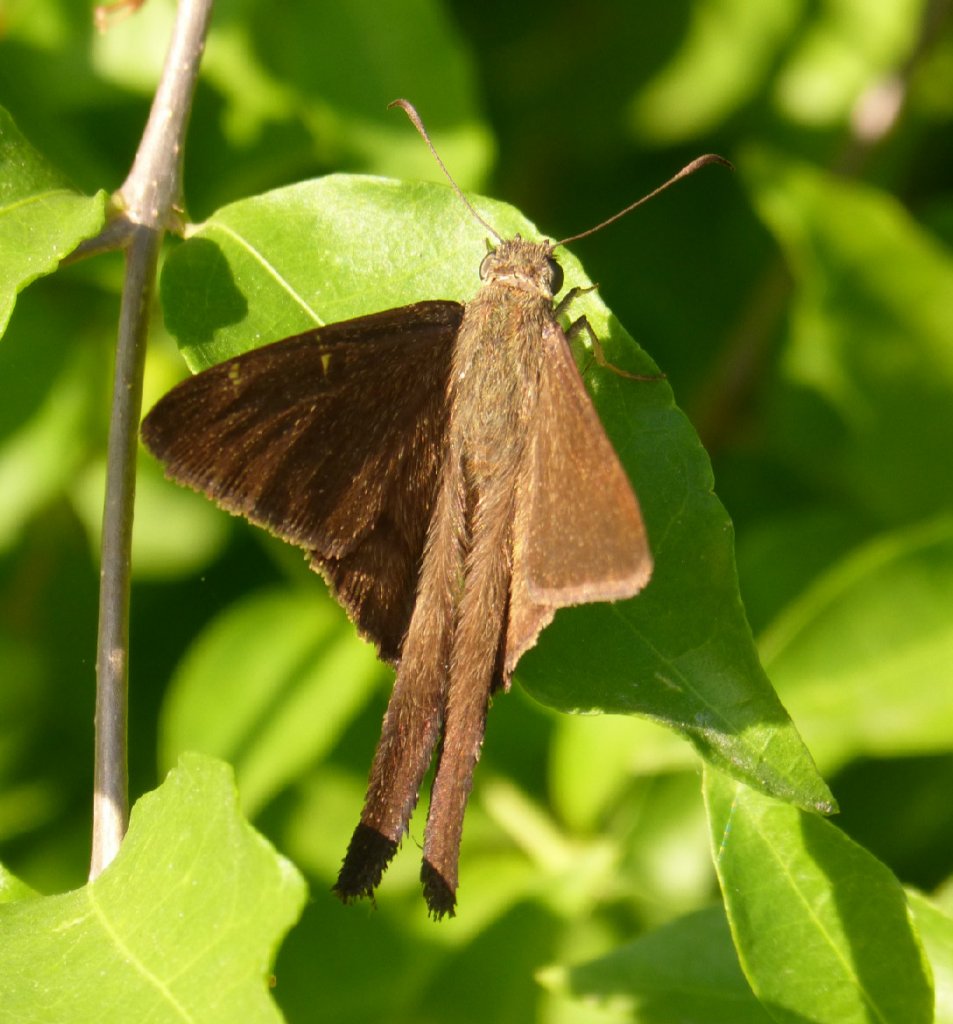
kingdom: Animalia
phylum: Arthropoda
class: Insecta
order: Lepidoptera
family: Hesperiidae
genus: Urbanus
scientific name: Urbanus procne
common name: Brown Longtail
